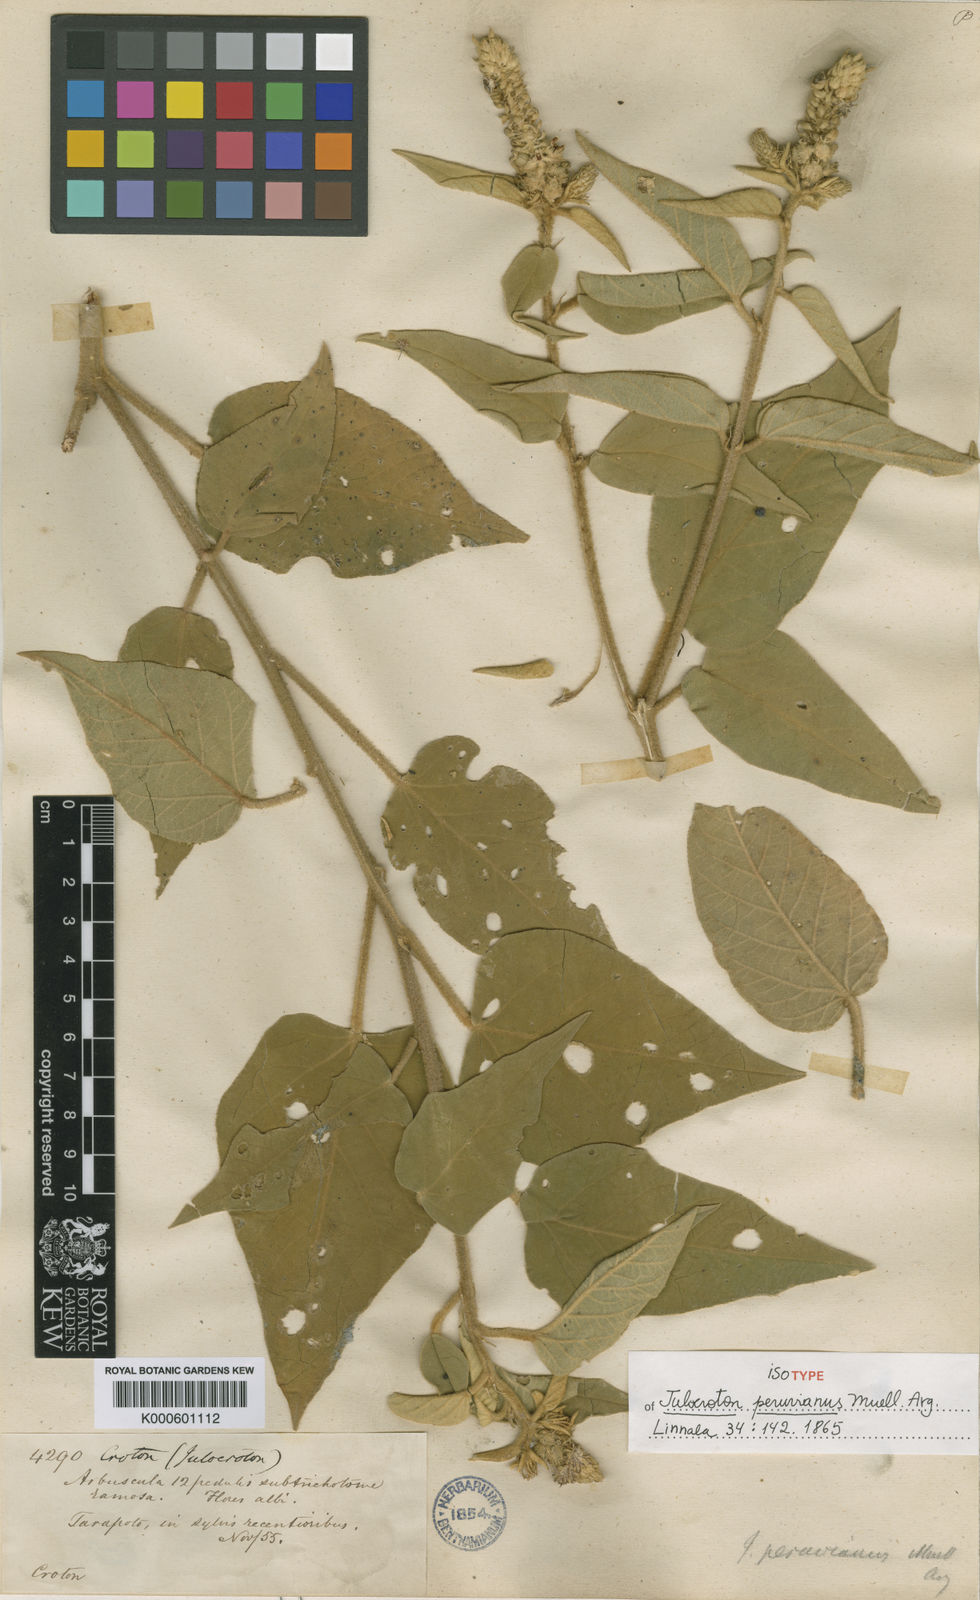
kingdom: Plantae
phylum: Tracheophyta
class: Magnoliopsida
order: Malpighiales
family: Euphorbiaceae
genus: Croton
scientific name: Croton
